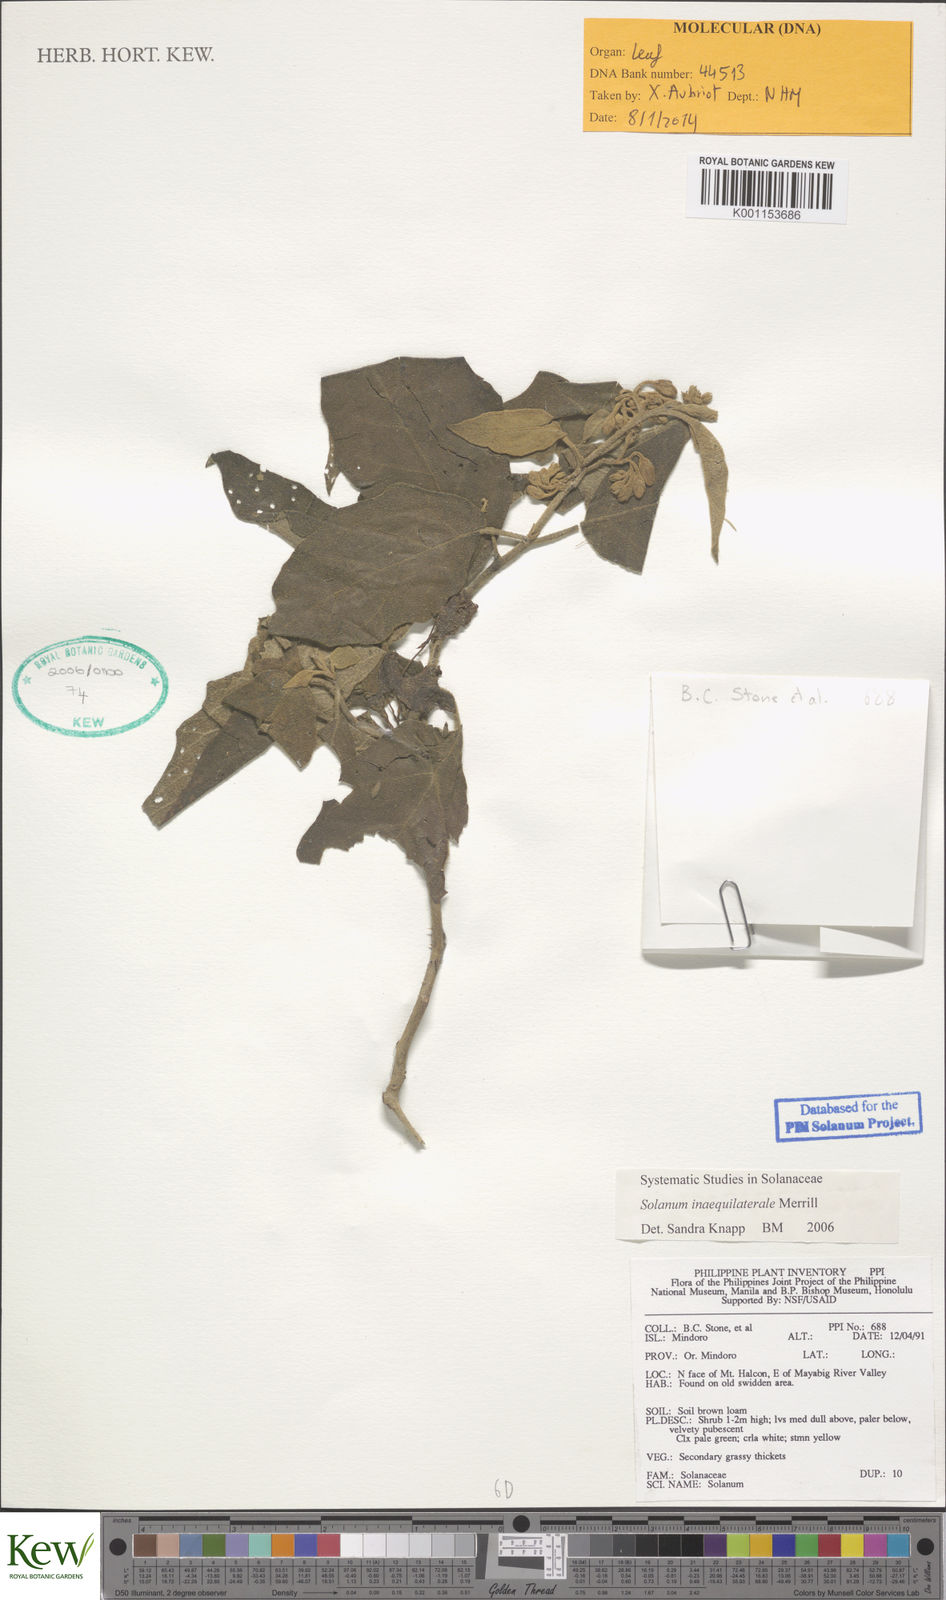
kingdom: Plantae
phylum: Tracheophyta
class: Magnoliopsida
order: Solanales
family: Solanaceae
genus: Solanum
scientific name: Solanum torvoideum
